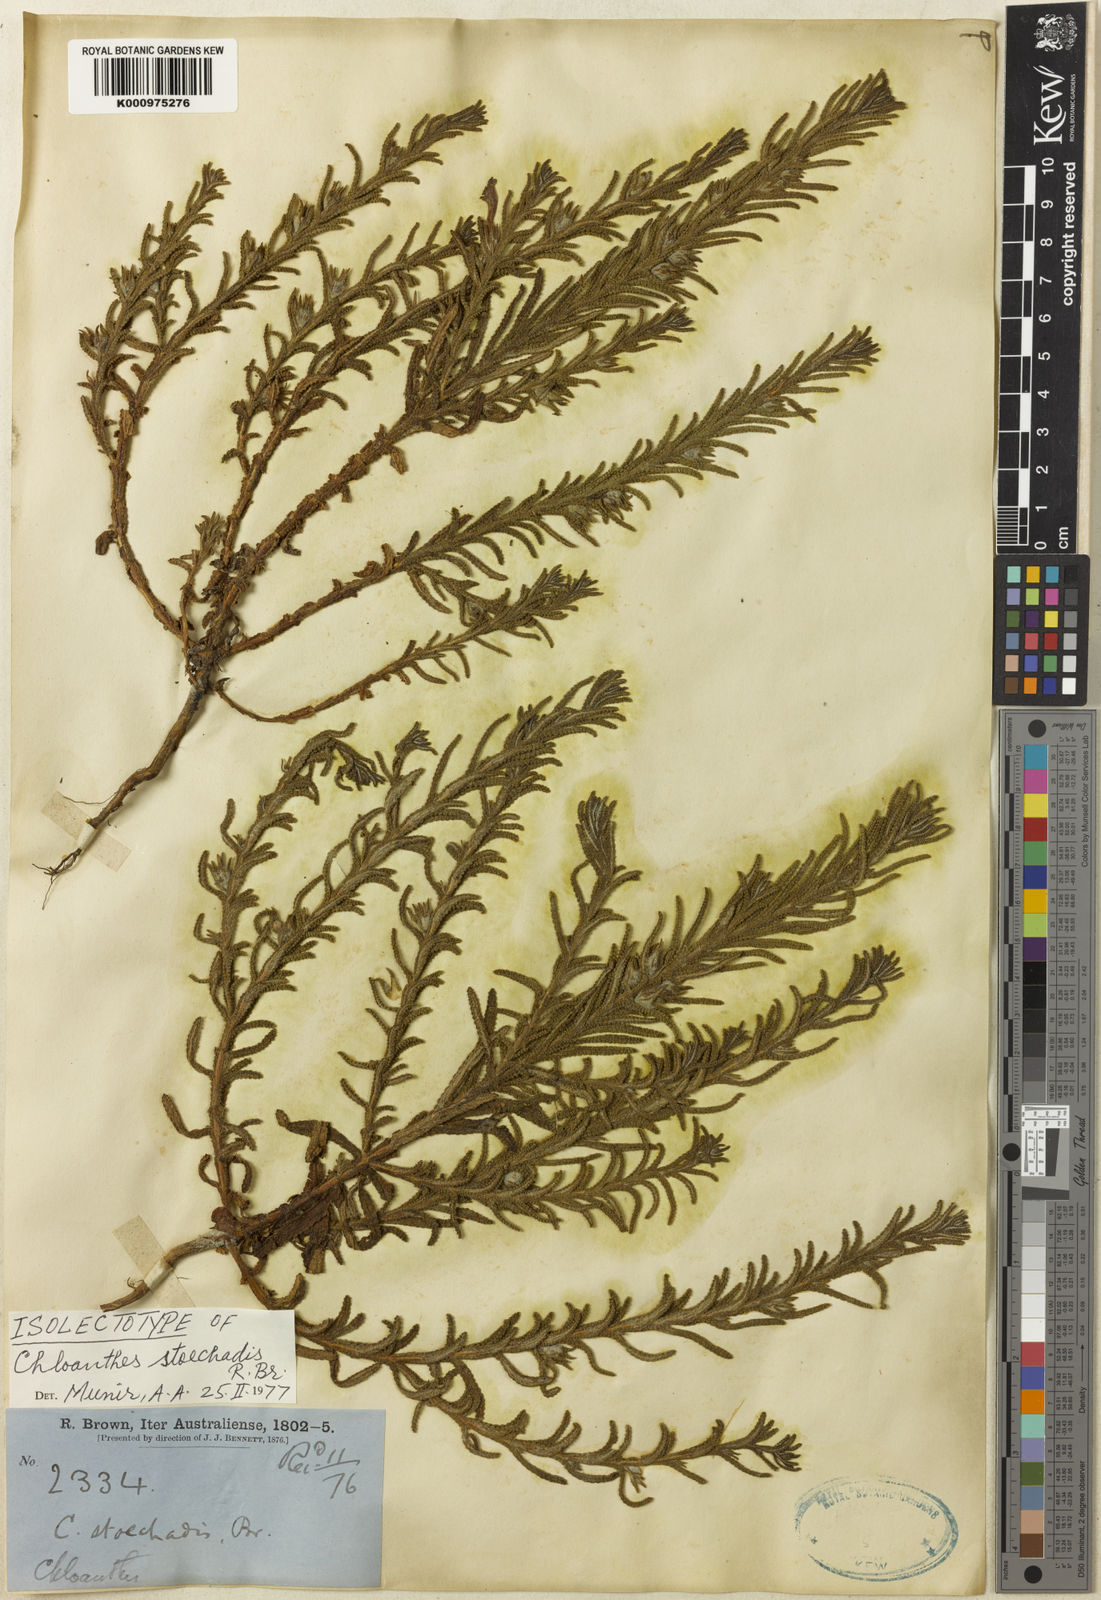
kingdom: Plantae
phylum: Tracheophyta
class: Magnoliopsida
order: Lamiales
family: Lamiaceae
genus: Chloanthes
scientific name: Chloanthes stoechadis
